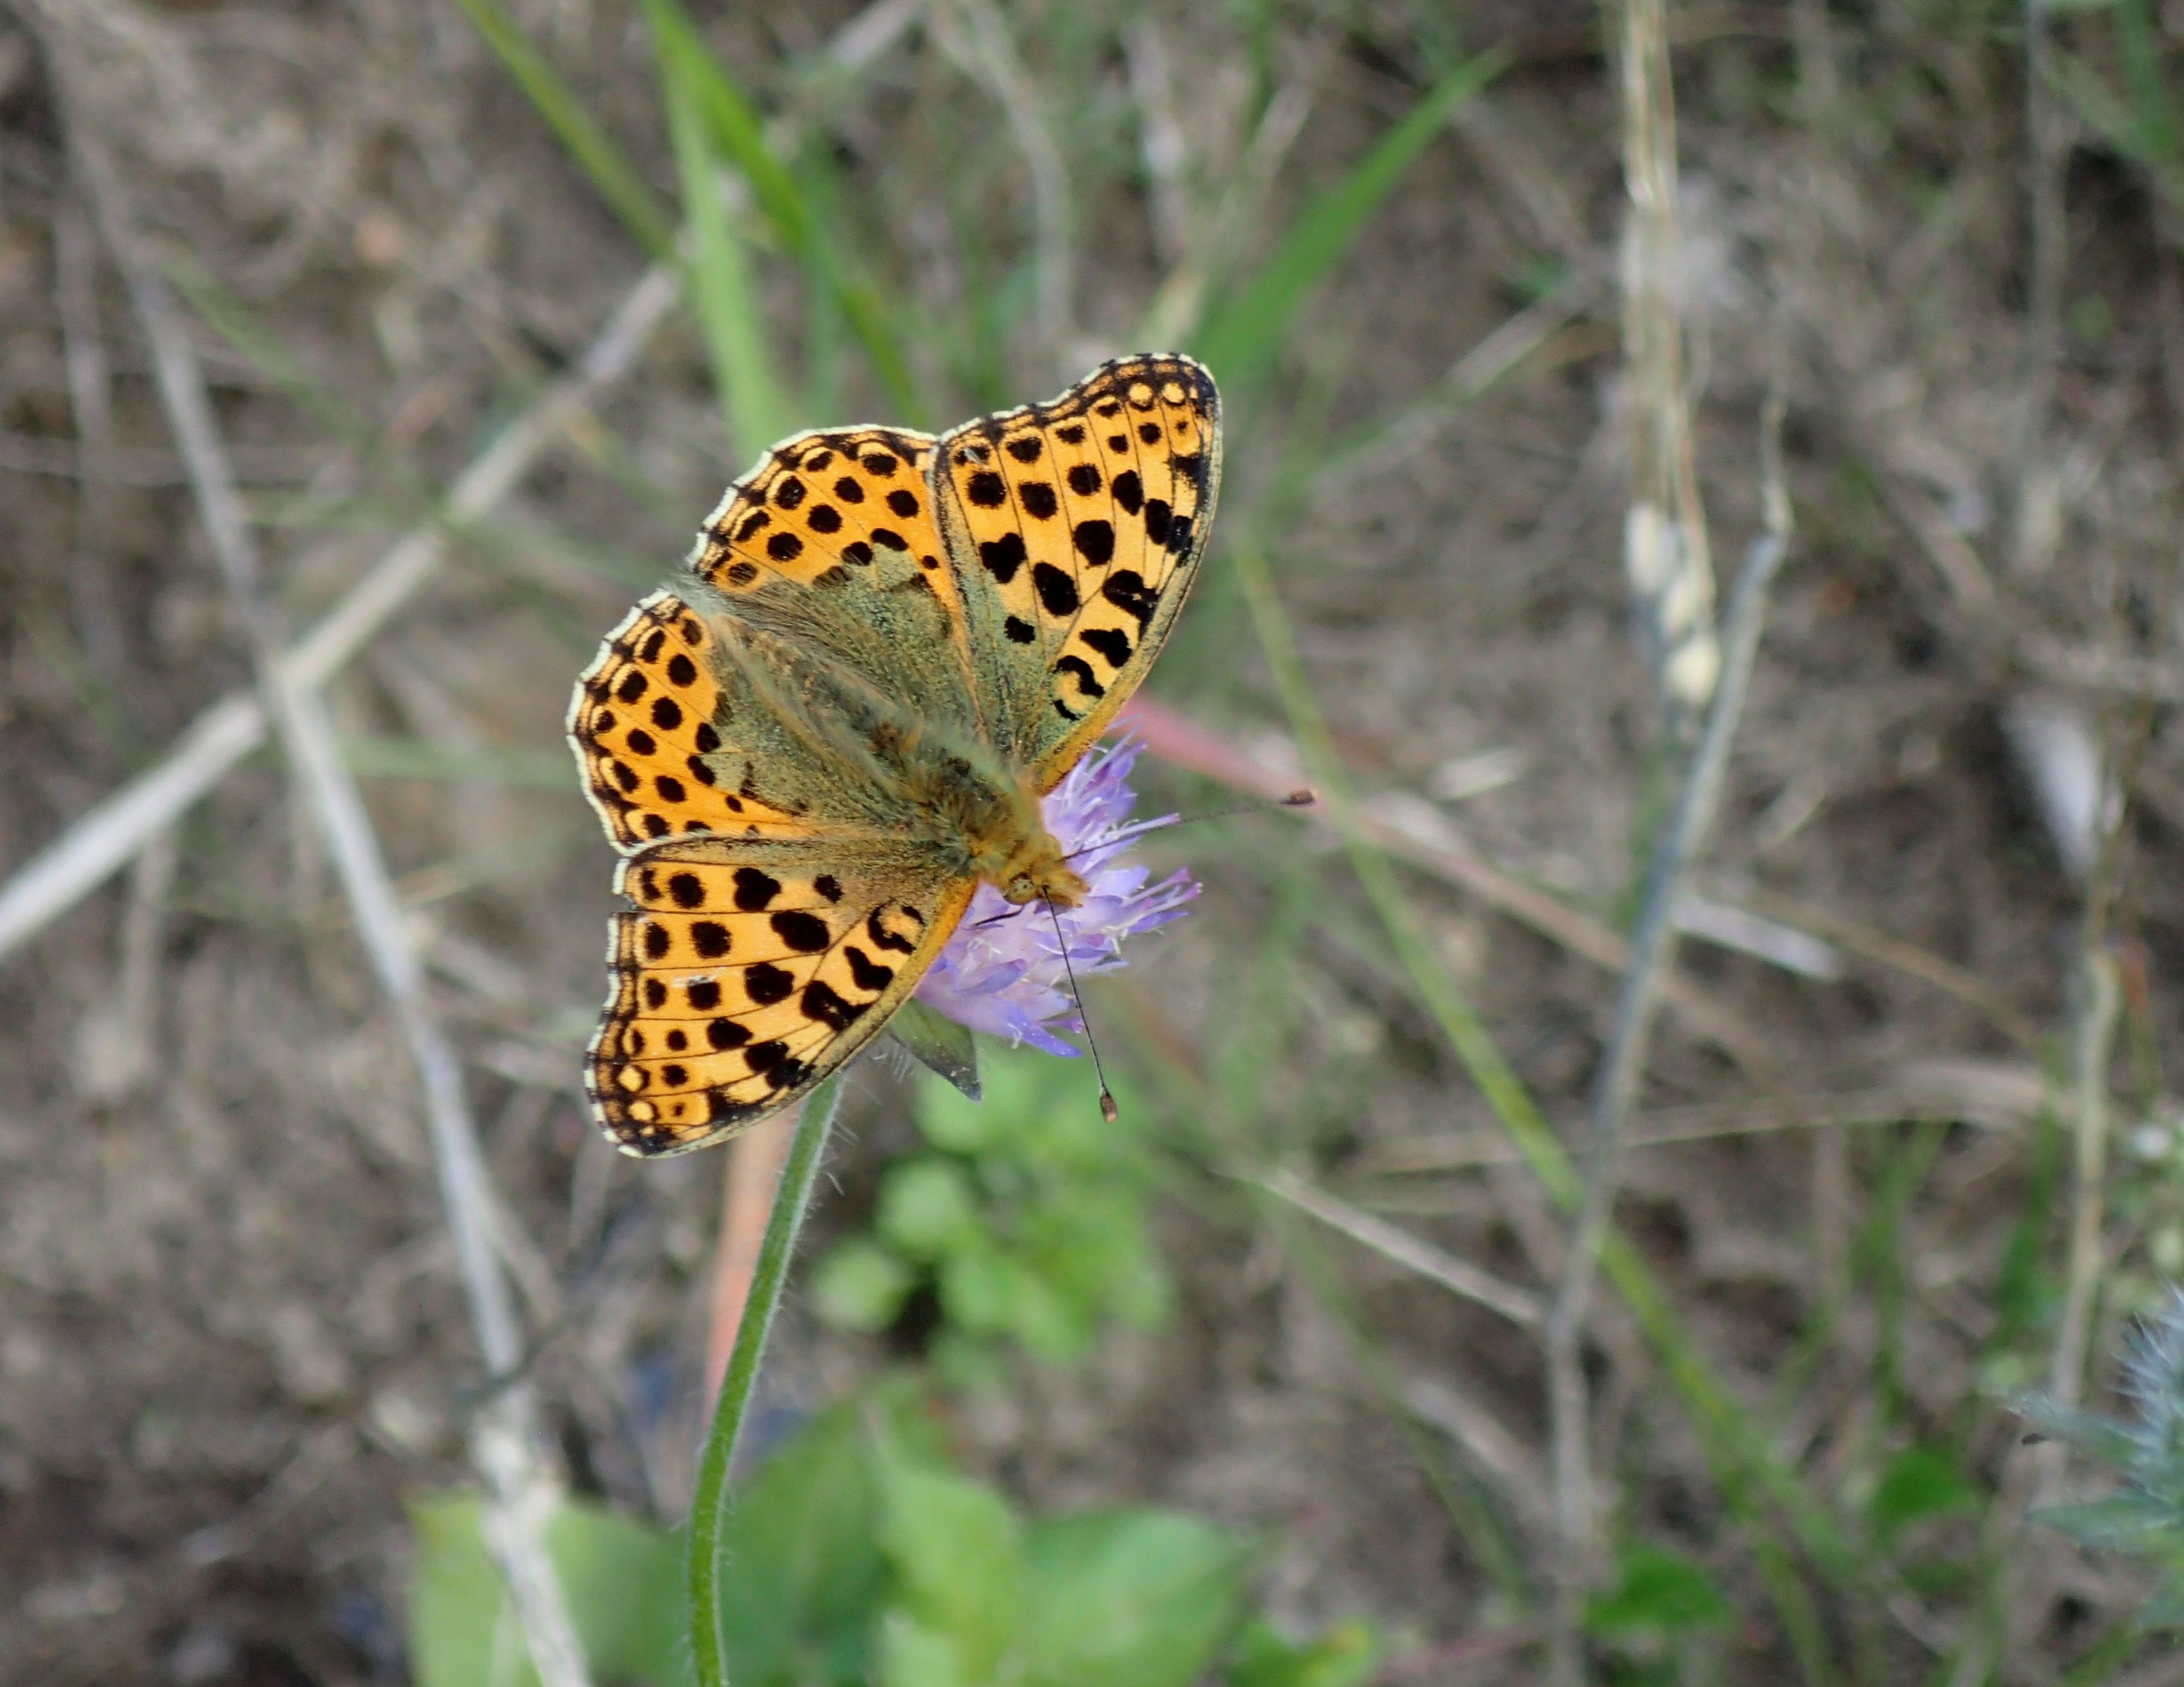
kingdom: Animalia
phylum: Arthropoda
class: Insecta
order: Lepidoptera
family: Nymphalidae
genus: Issoria
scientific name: Issoria lathonia
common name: Storplettet perlemorsommerfugl
